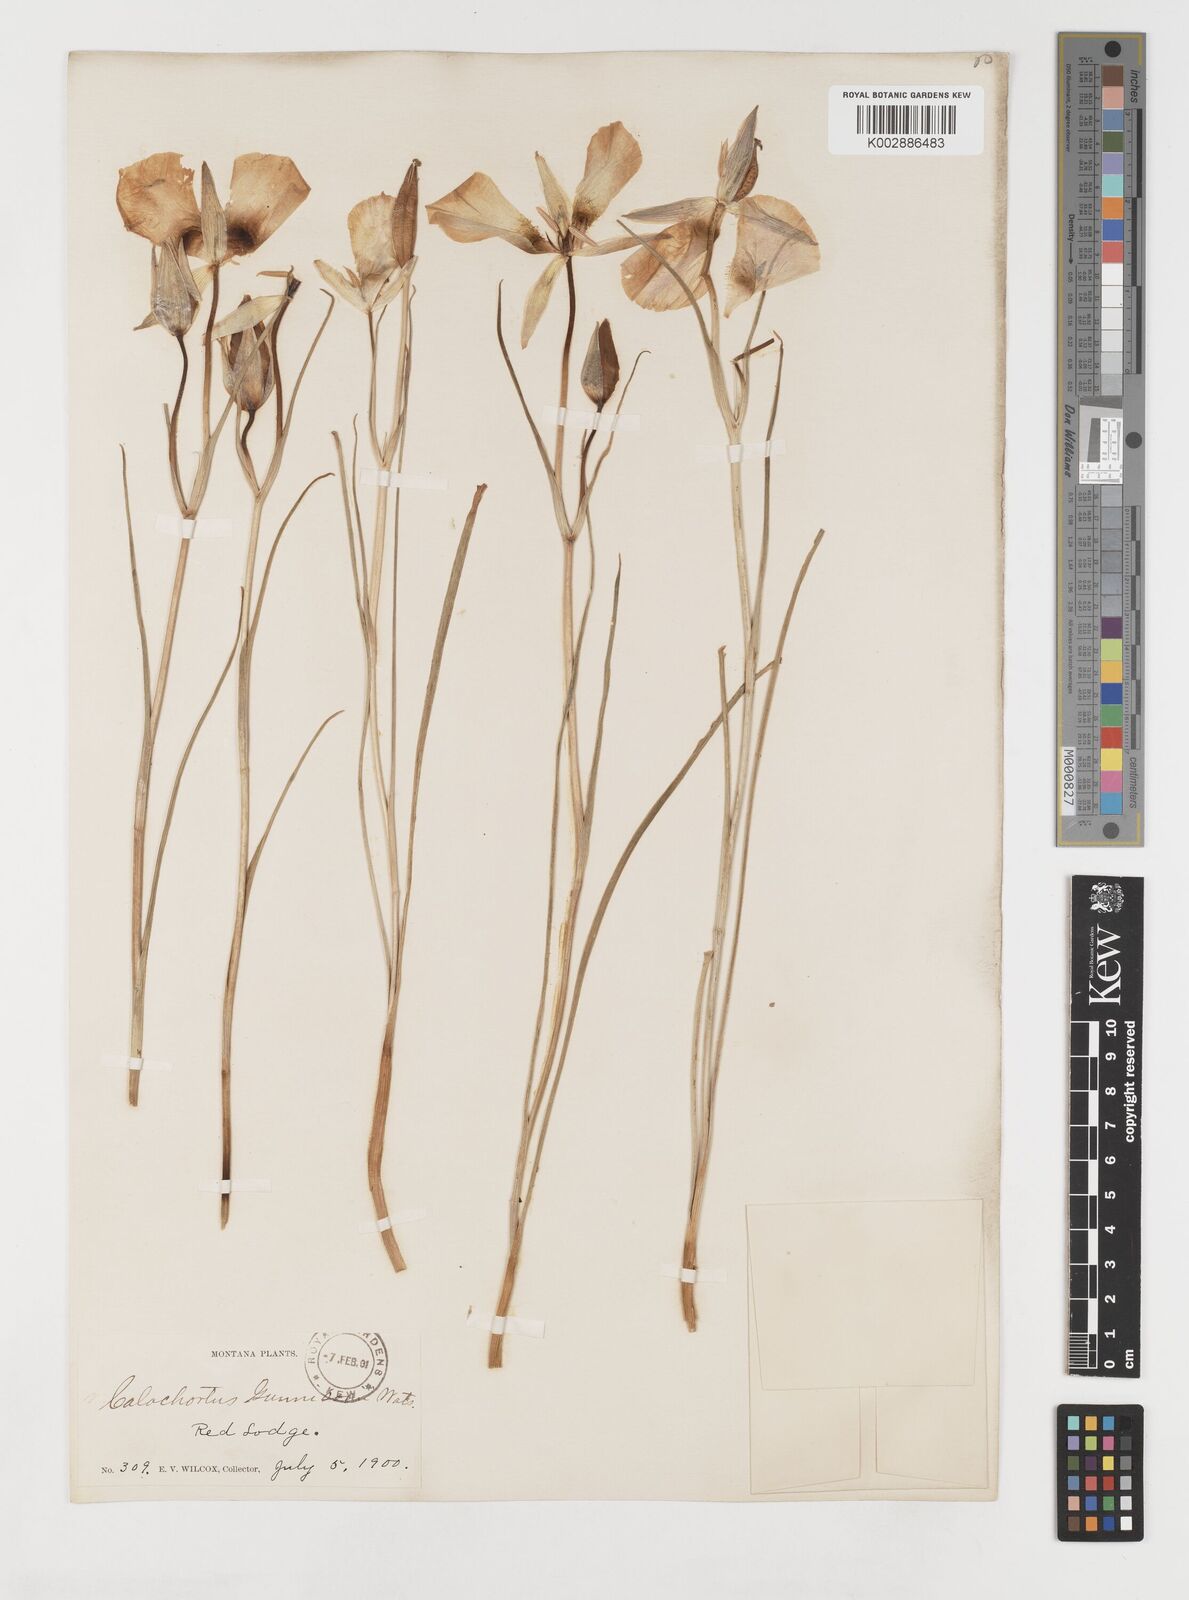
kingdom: Plantae
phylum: Tracheophyta
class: Liliopsida
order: Liliales
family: Liliaceae
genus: Calochortus
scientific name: Calochortus gunnisonii
